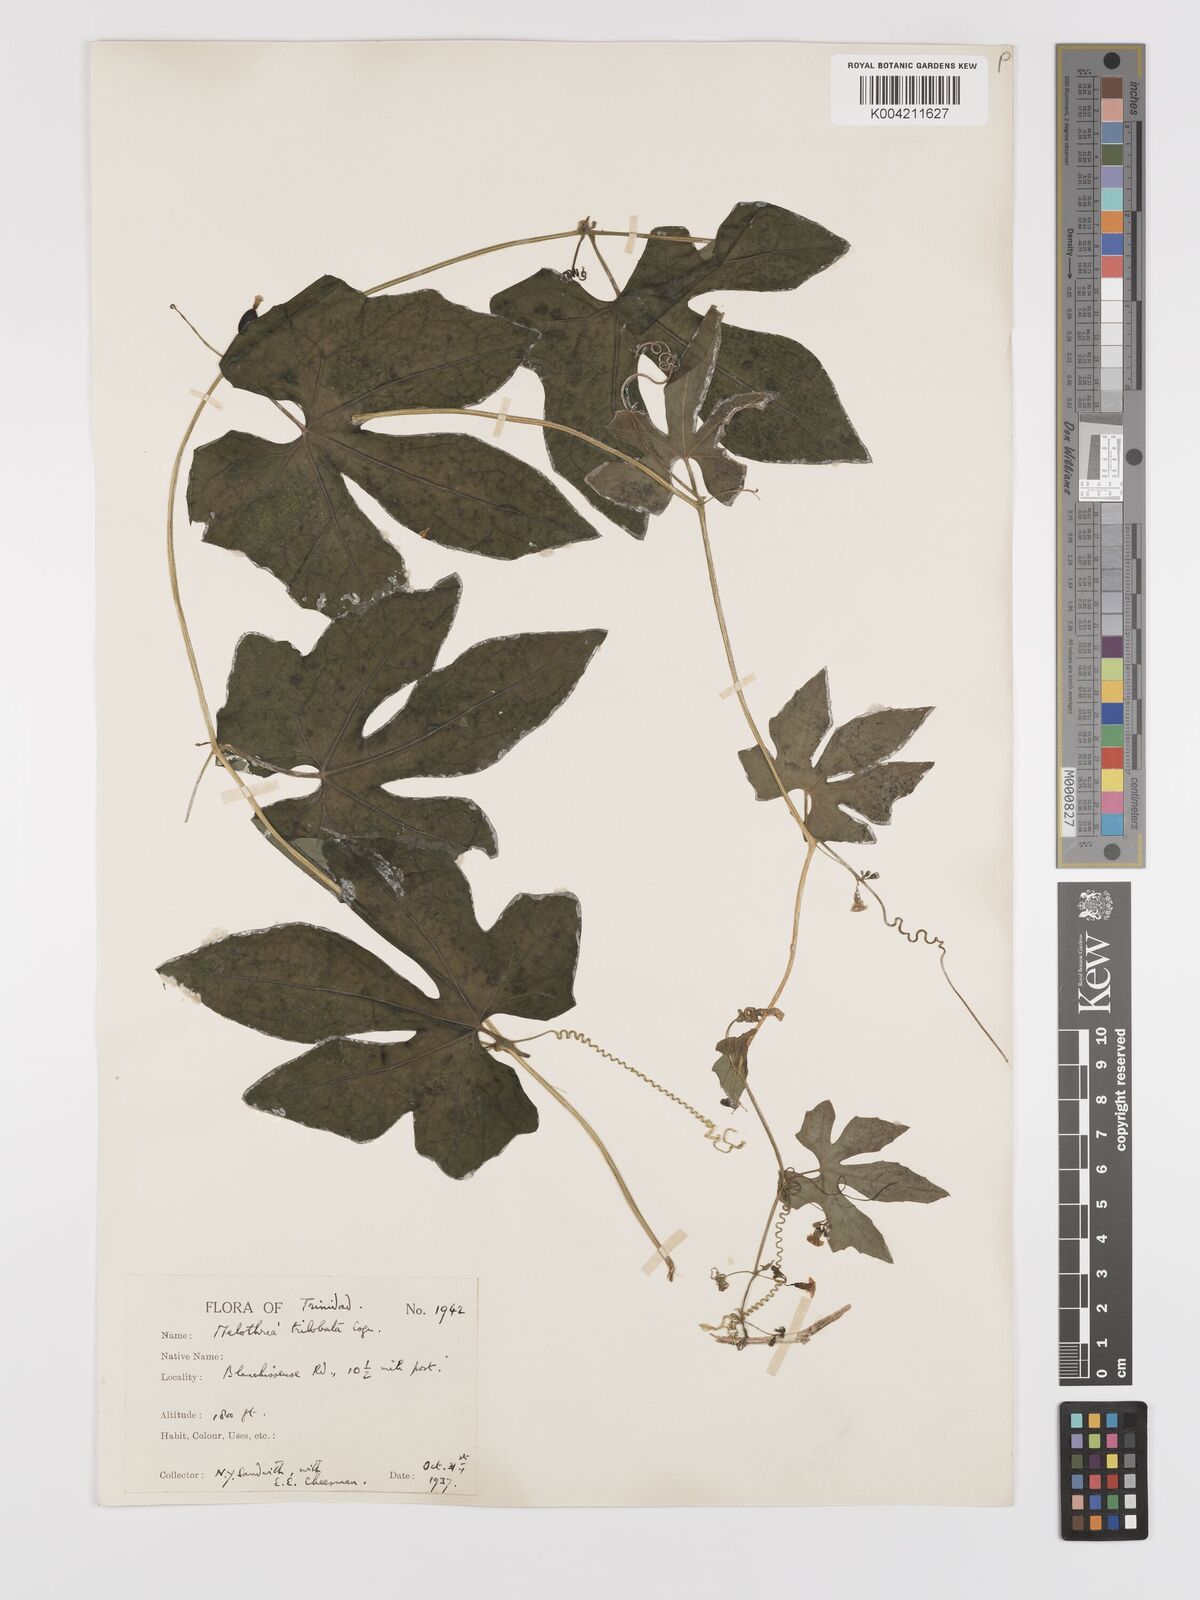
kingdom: Plantae
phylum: Tracheophyta
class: Magnoliopsida
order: Cucurbitales
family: Cucurbitaceae
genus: Melothria
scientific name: Melothria trilobata
